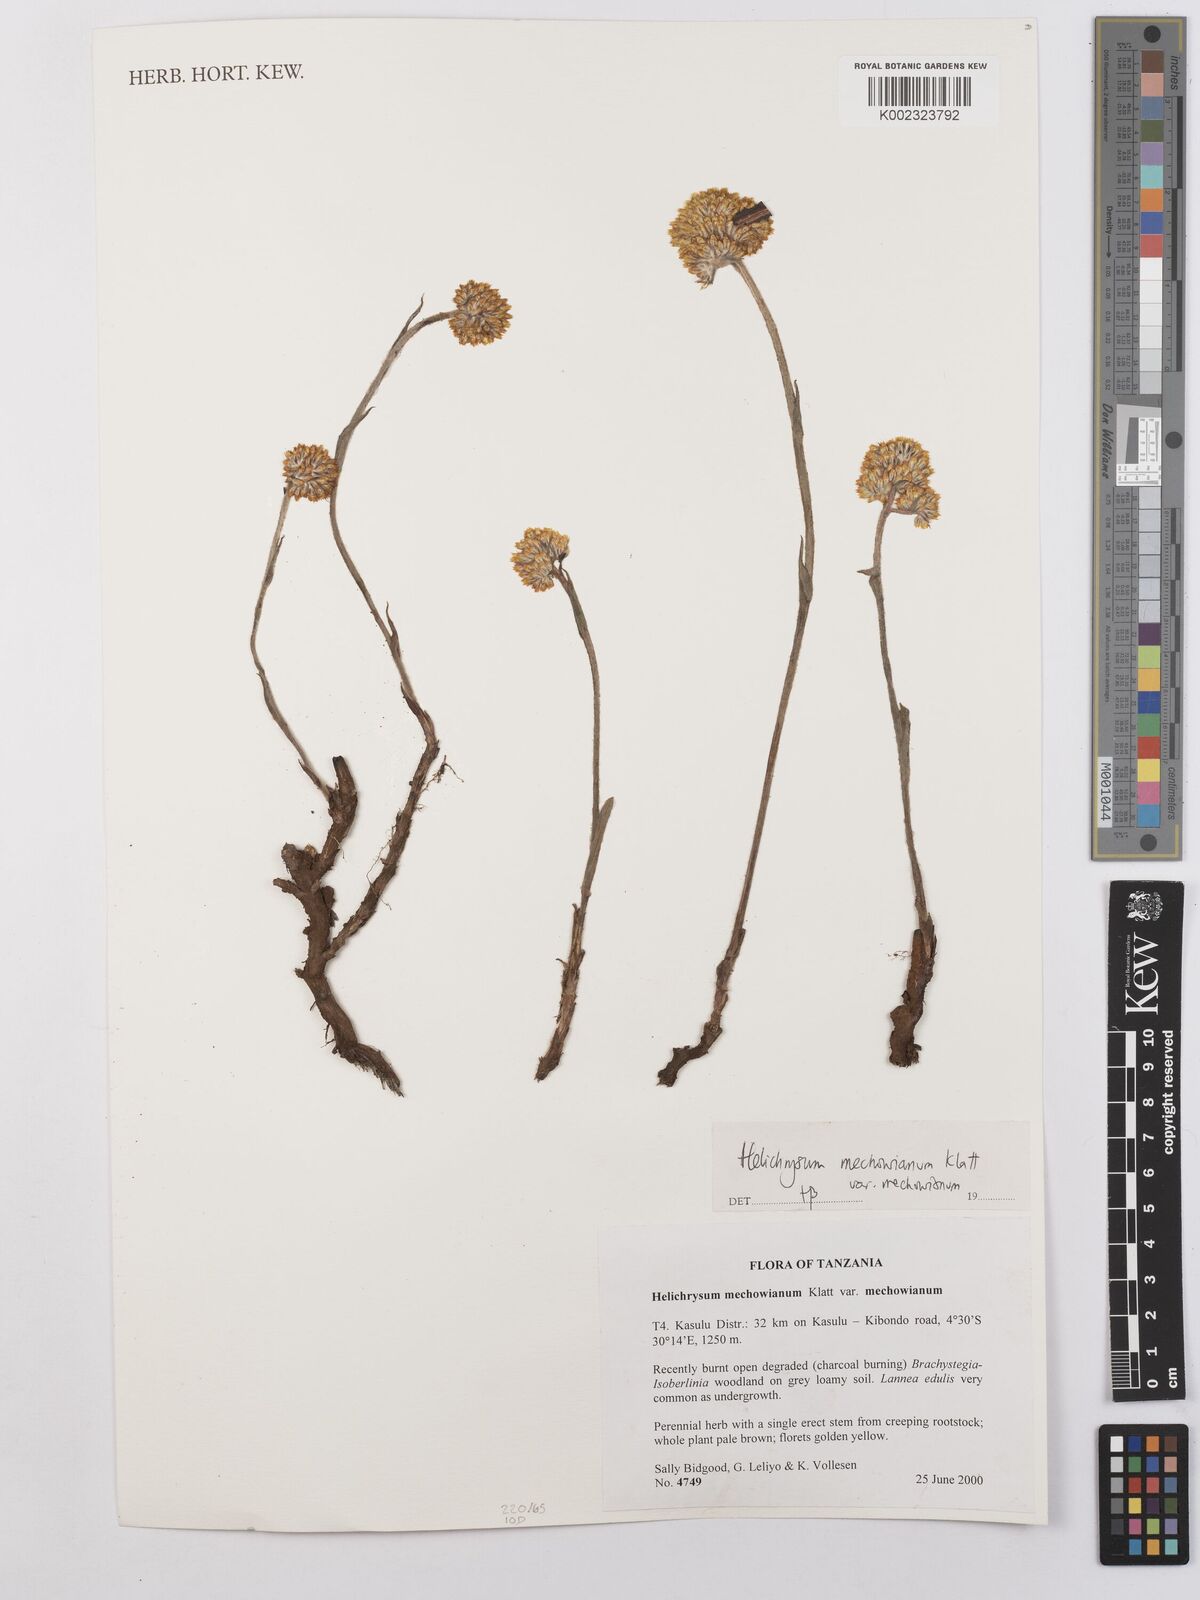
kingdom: Plantae
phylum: Tracheophyta
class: Magnoliopsida
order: Asterales
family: Asteraceae
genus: Helichrysum
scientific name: Helichrysum mechowianum
